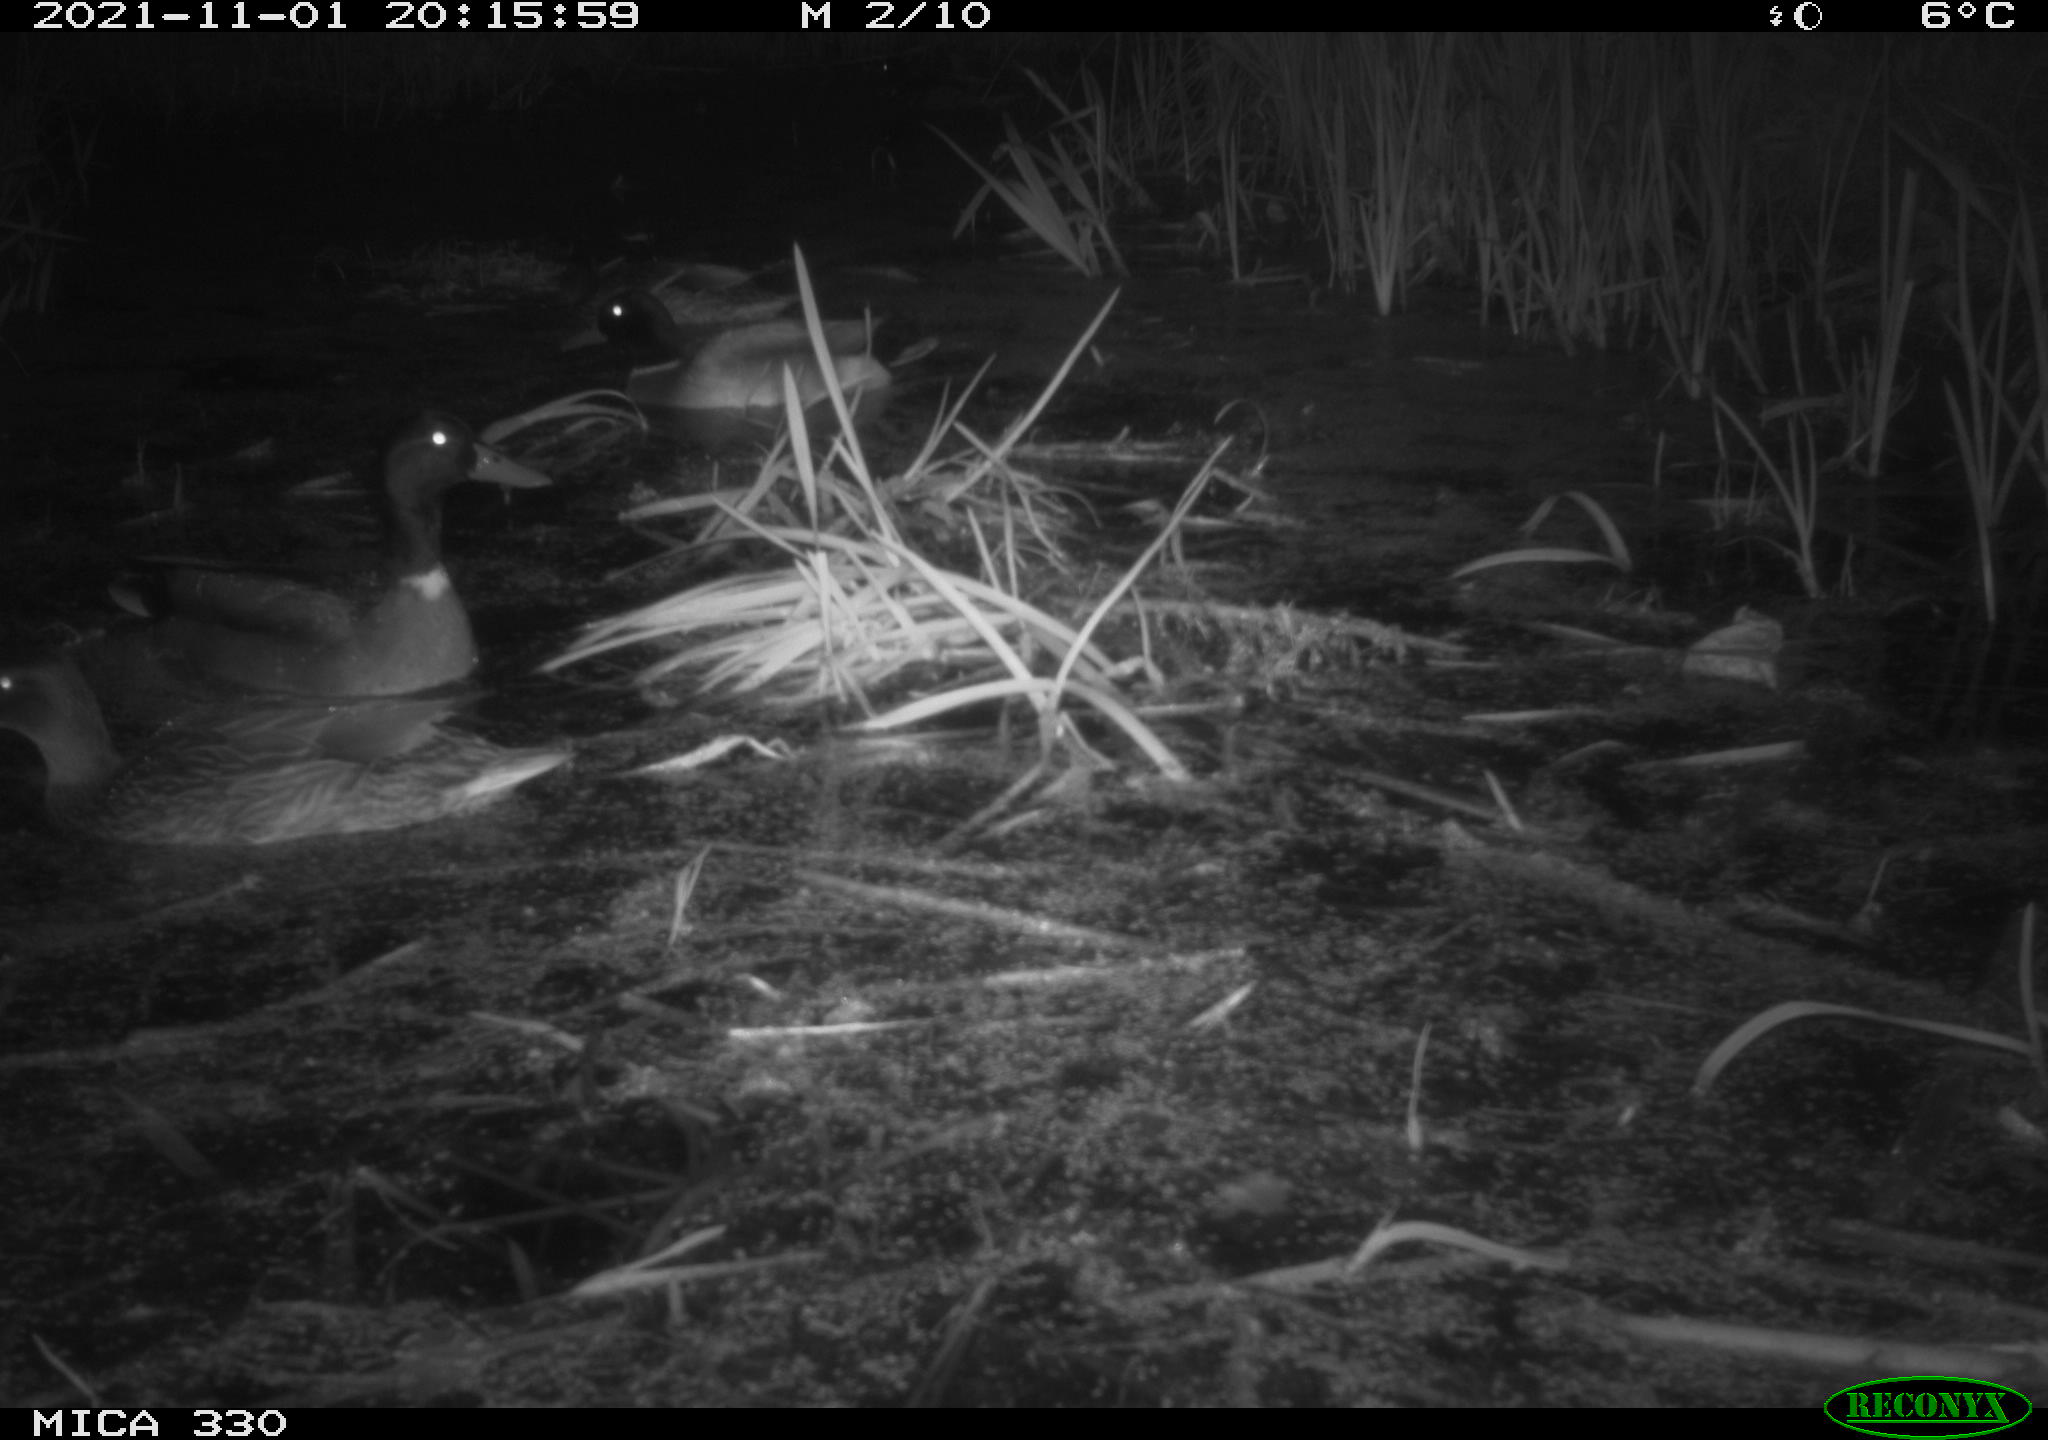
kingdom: Animalia
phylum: Chordata
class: Aves
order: Anseriformes
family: Anatidae
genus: Anas
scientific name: Anas platyrhynchos
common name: Mallard
